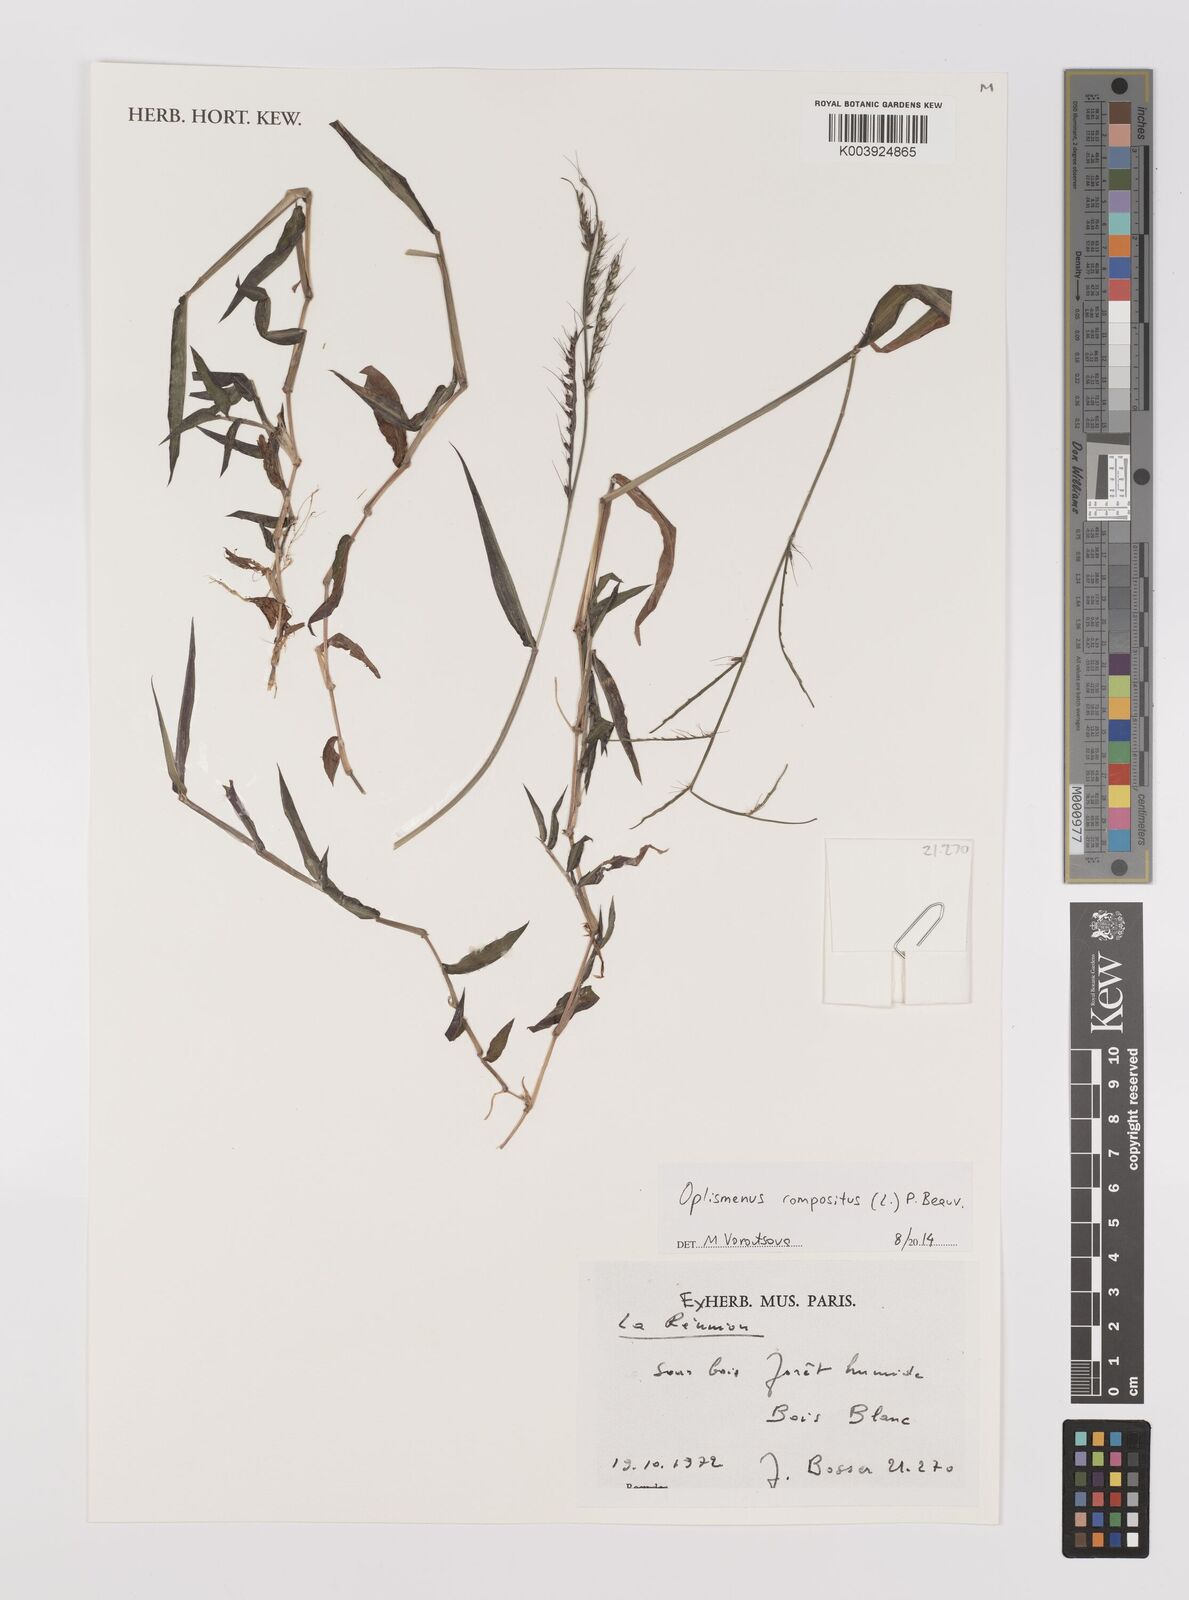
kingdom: Plantae
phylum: Tracheophyta
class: Liliopsida
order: Poales
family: Poaceae
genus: Oplismenus
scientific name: Oplismenus compositus
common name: Running mountain grass
